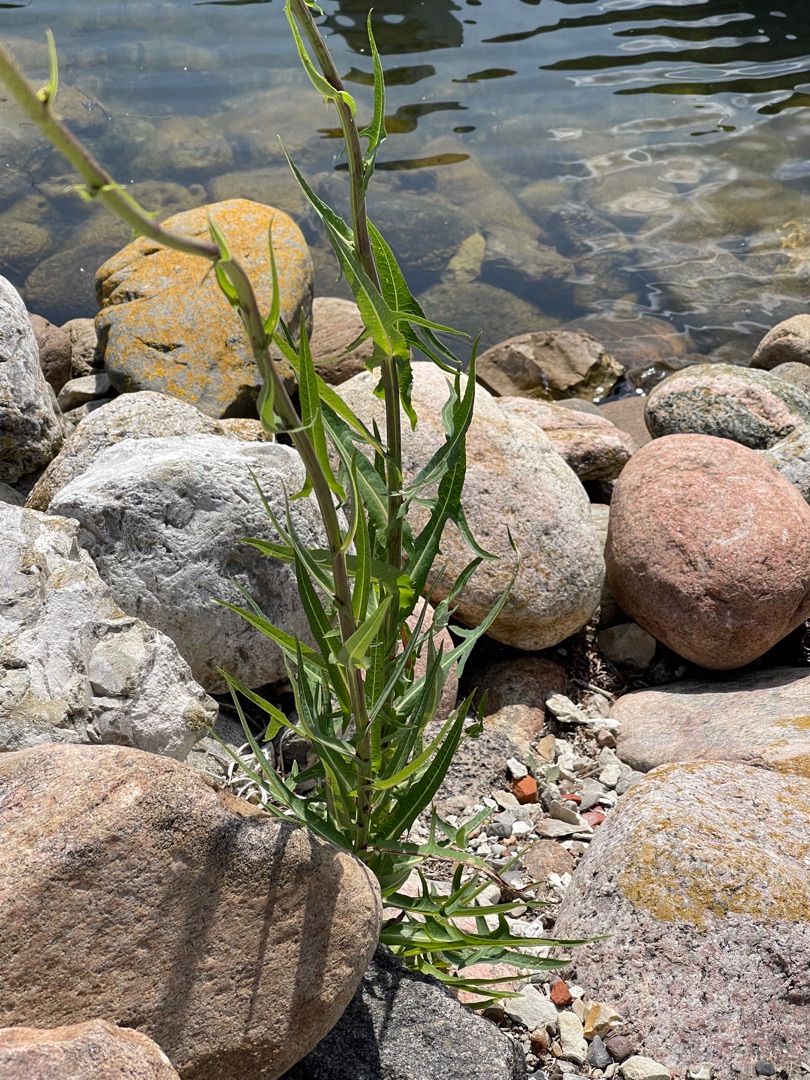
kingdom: Plantae
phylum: Tracheophyta
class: Magnoliopsida
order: Asterales
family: Asteraceae
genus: Sonchus
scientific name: Sonchus palustris
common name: Kær-svinemælk
